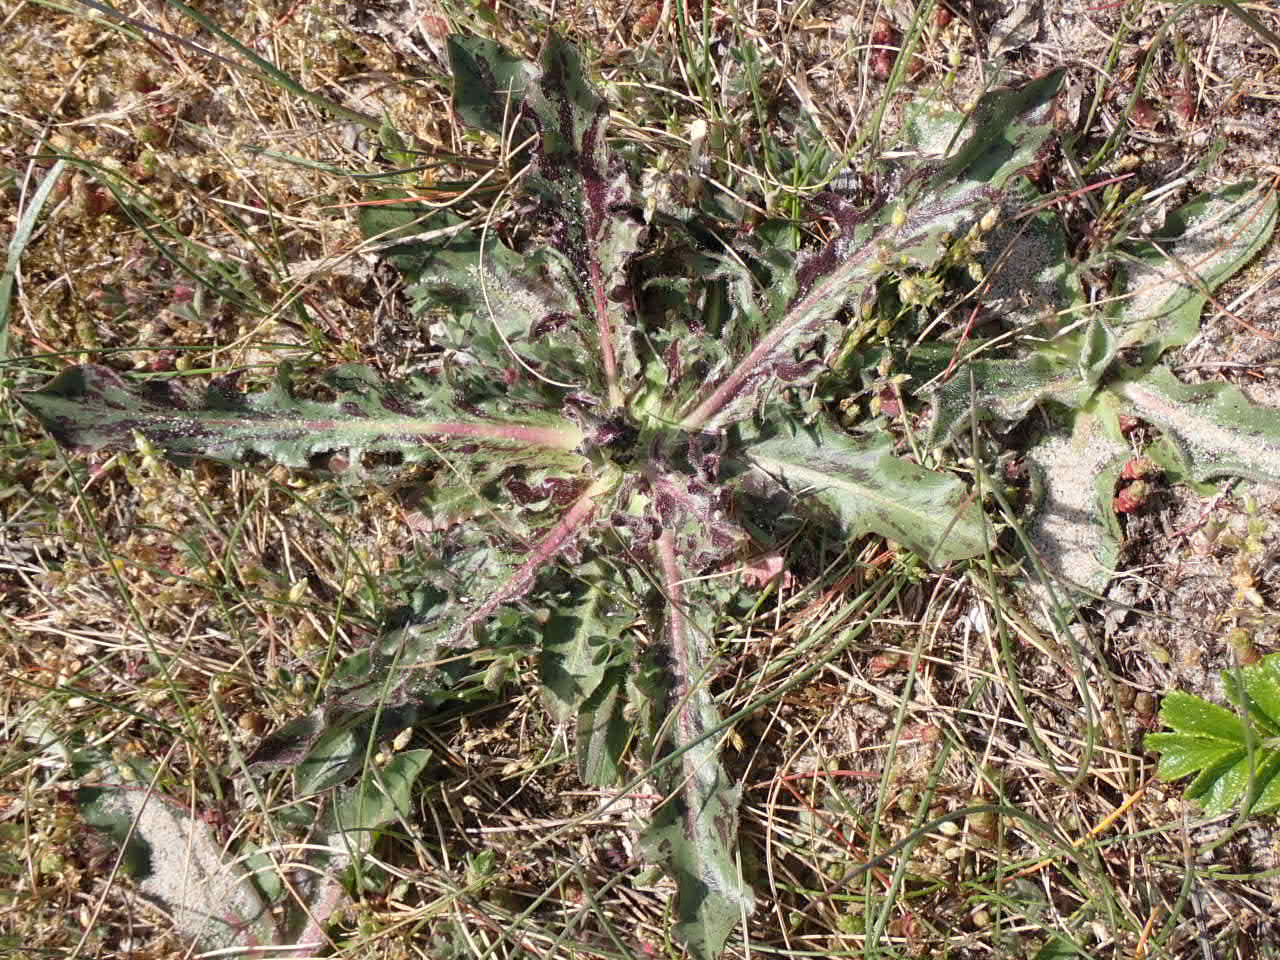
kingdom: Plantae
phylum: Tracheophyta
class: Magnoliopsida
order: Asterales
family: Asteraceae
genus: Trommsdorffia
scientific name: Trommsdorffia maculata
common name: Plettet kongepen
